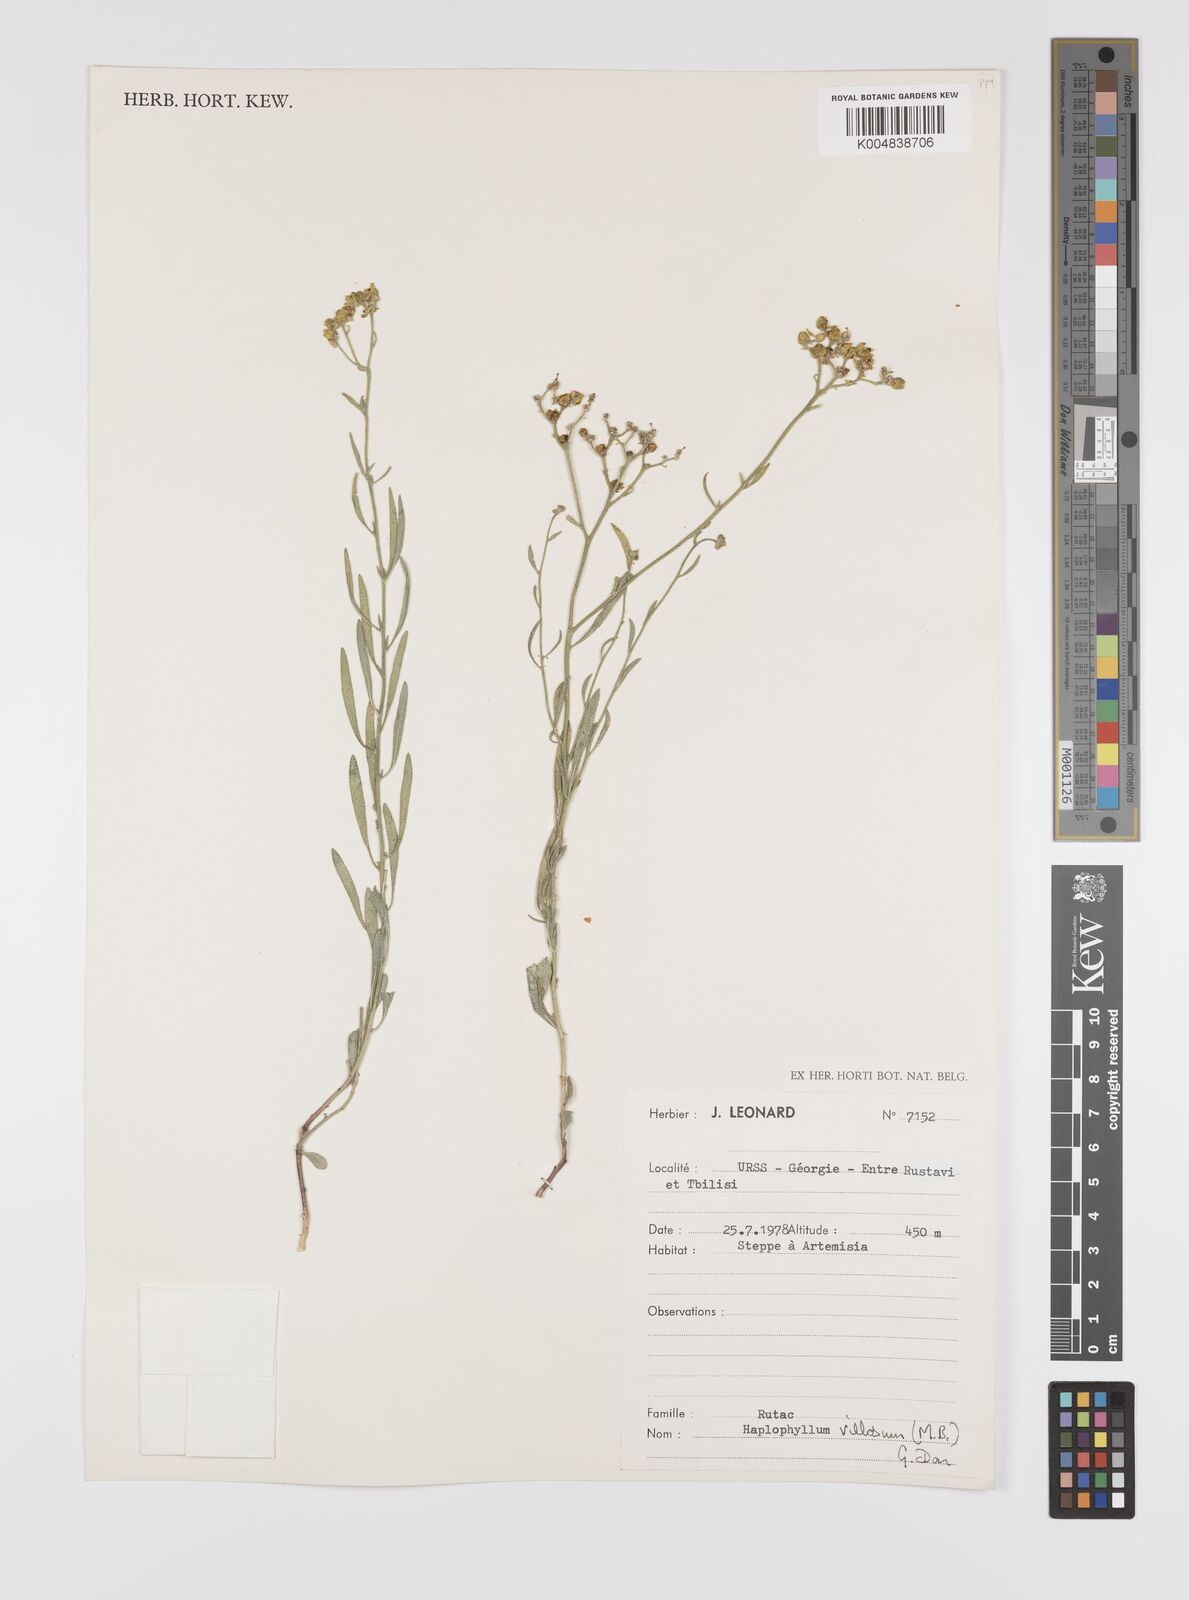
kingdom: Plantae
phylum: Tracheophyta
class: Magnoliopsida
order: Sapindales
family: Rutaceae
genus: Haplophyllum
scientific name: Haplophyllum villosum
